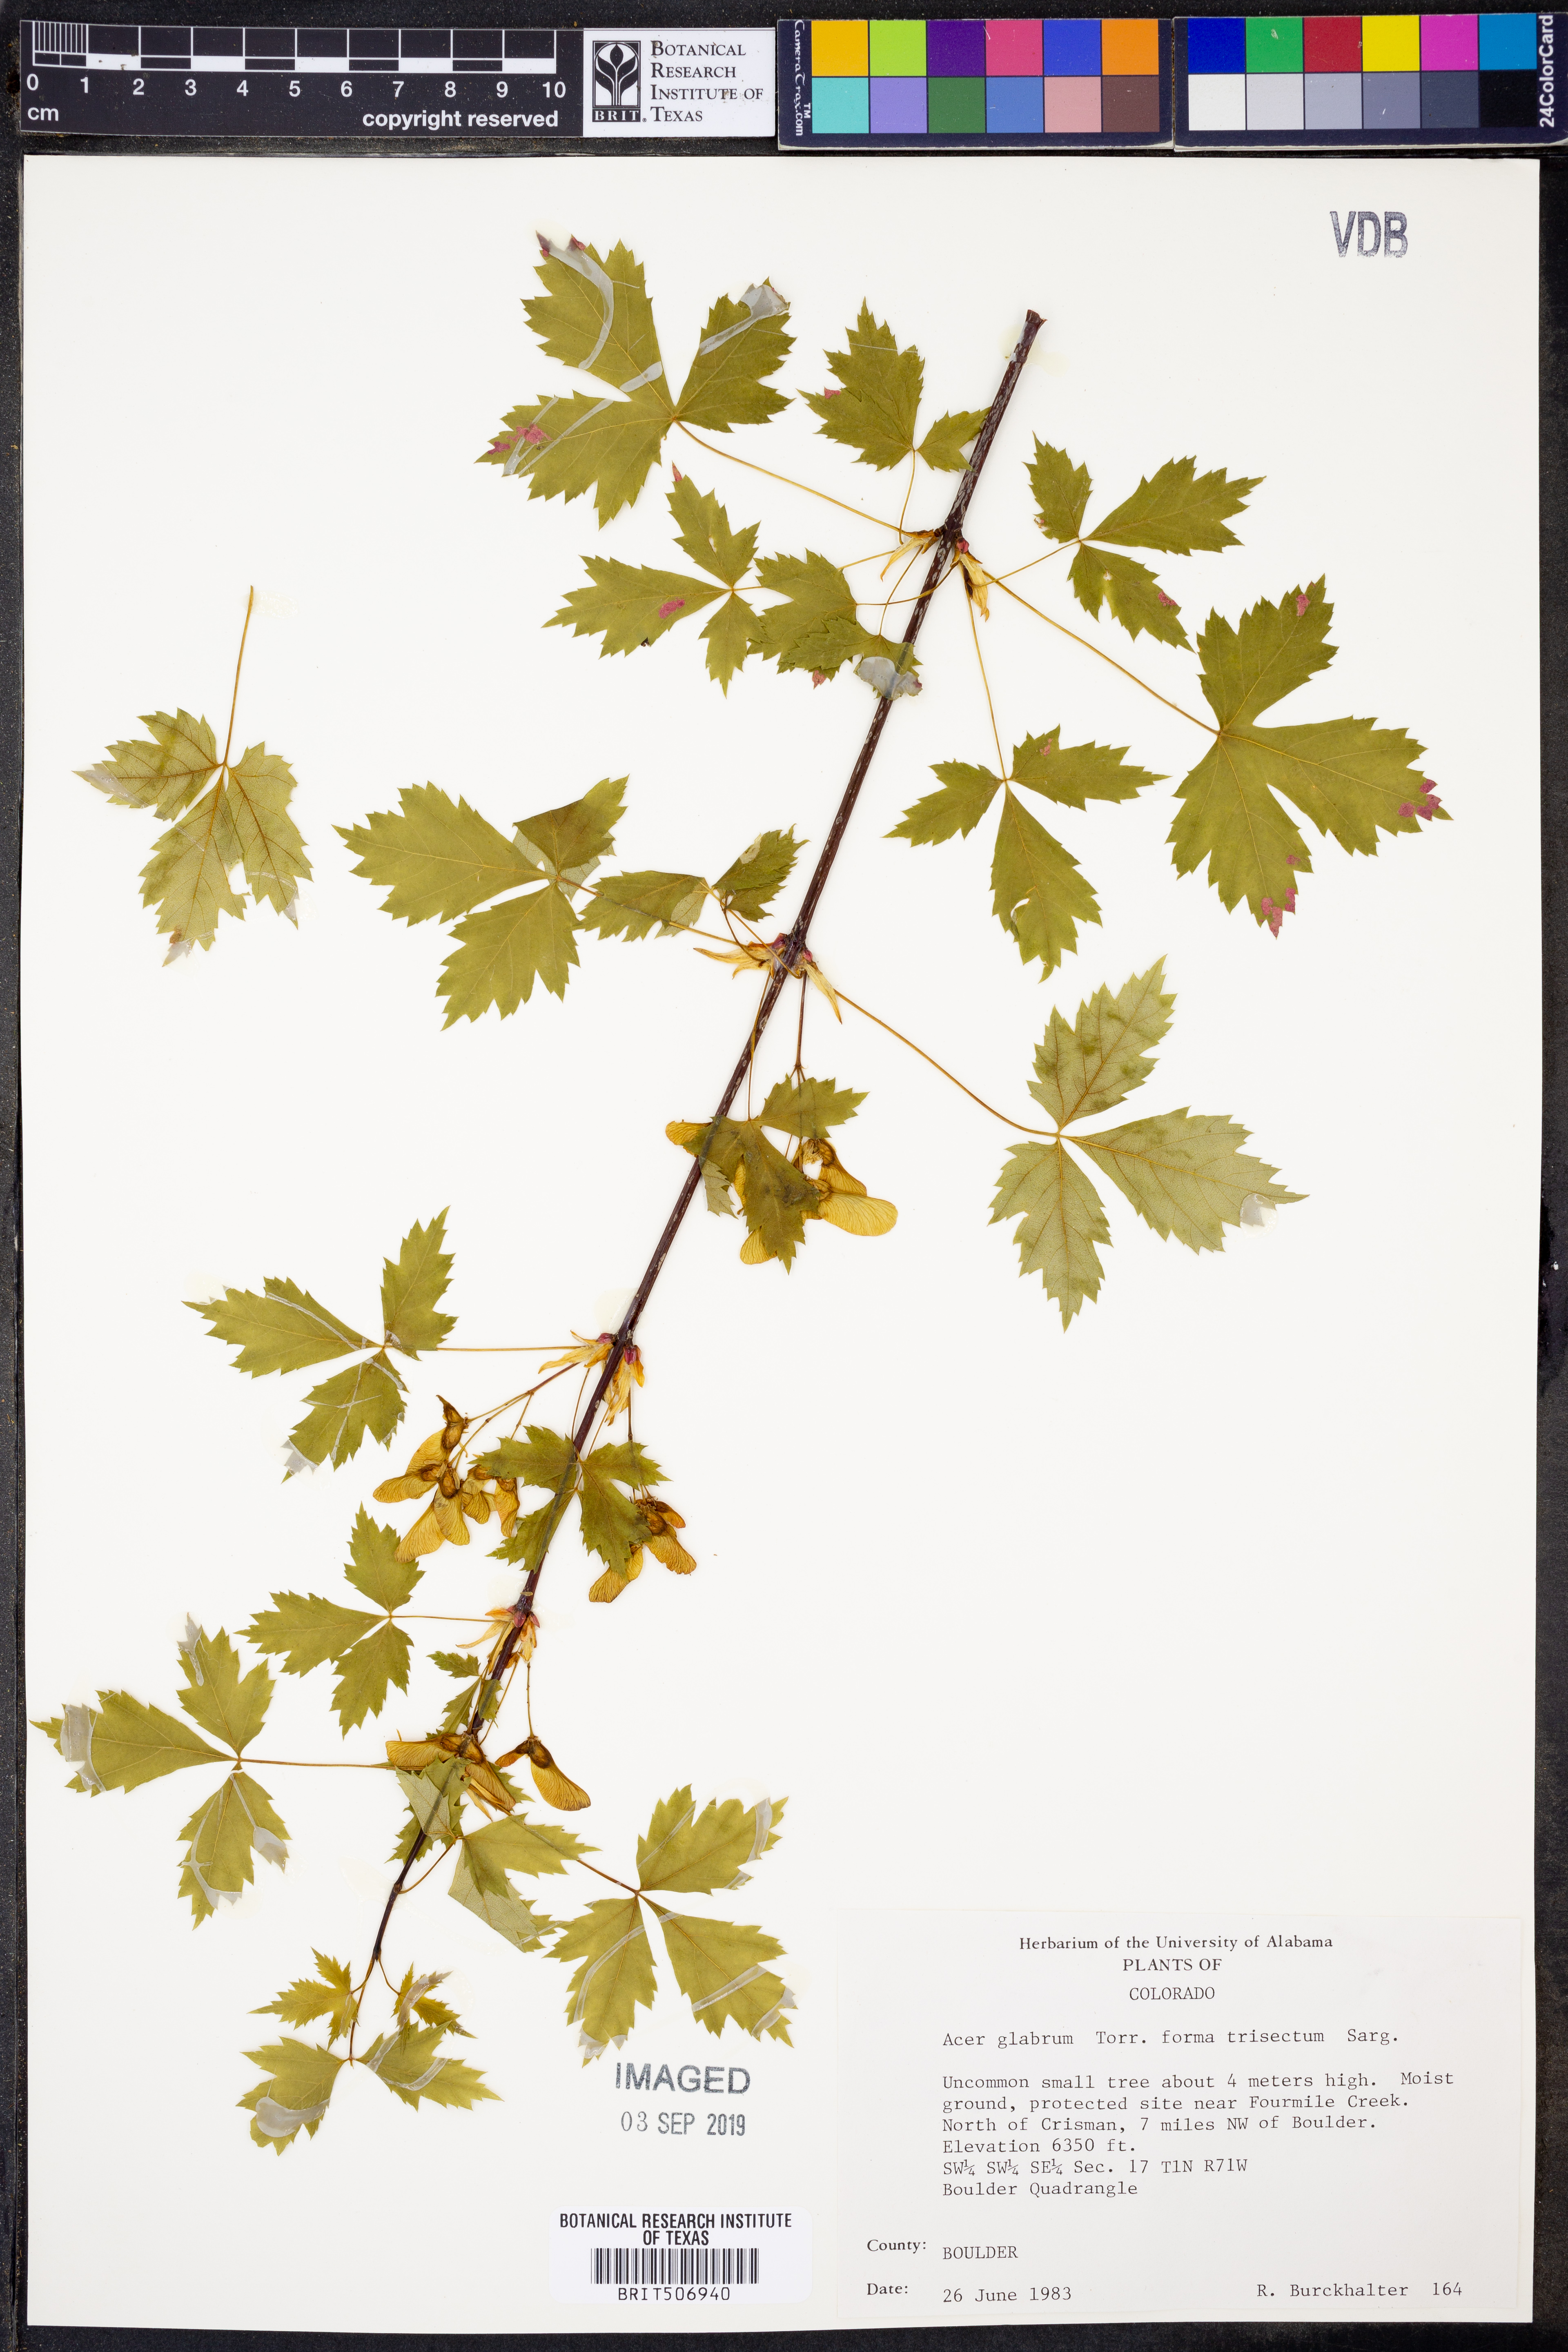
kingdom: Plantae
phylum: Tracheophyta
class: Magnoliopsida
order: Sapindales
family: Sapindaceae
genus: Acer
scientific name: Acer glabrum
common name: Rocky mountain maple
